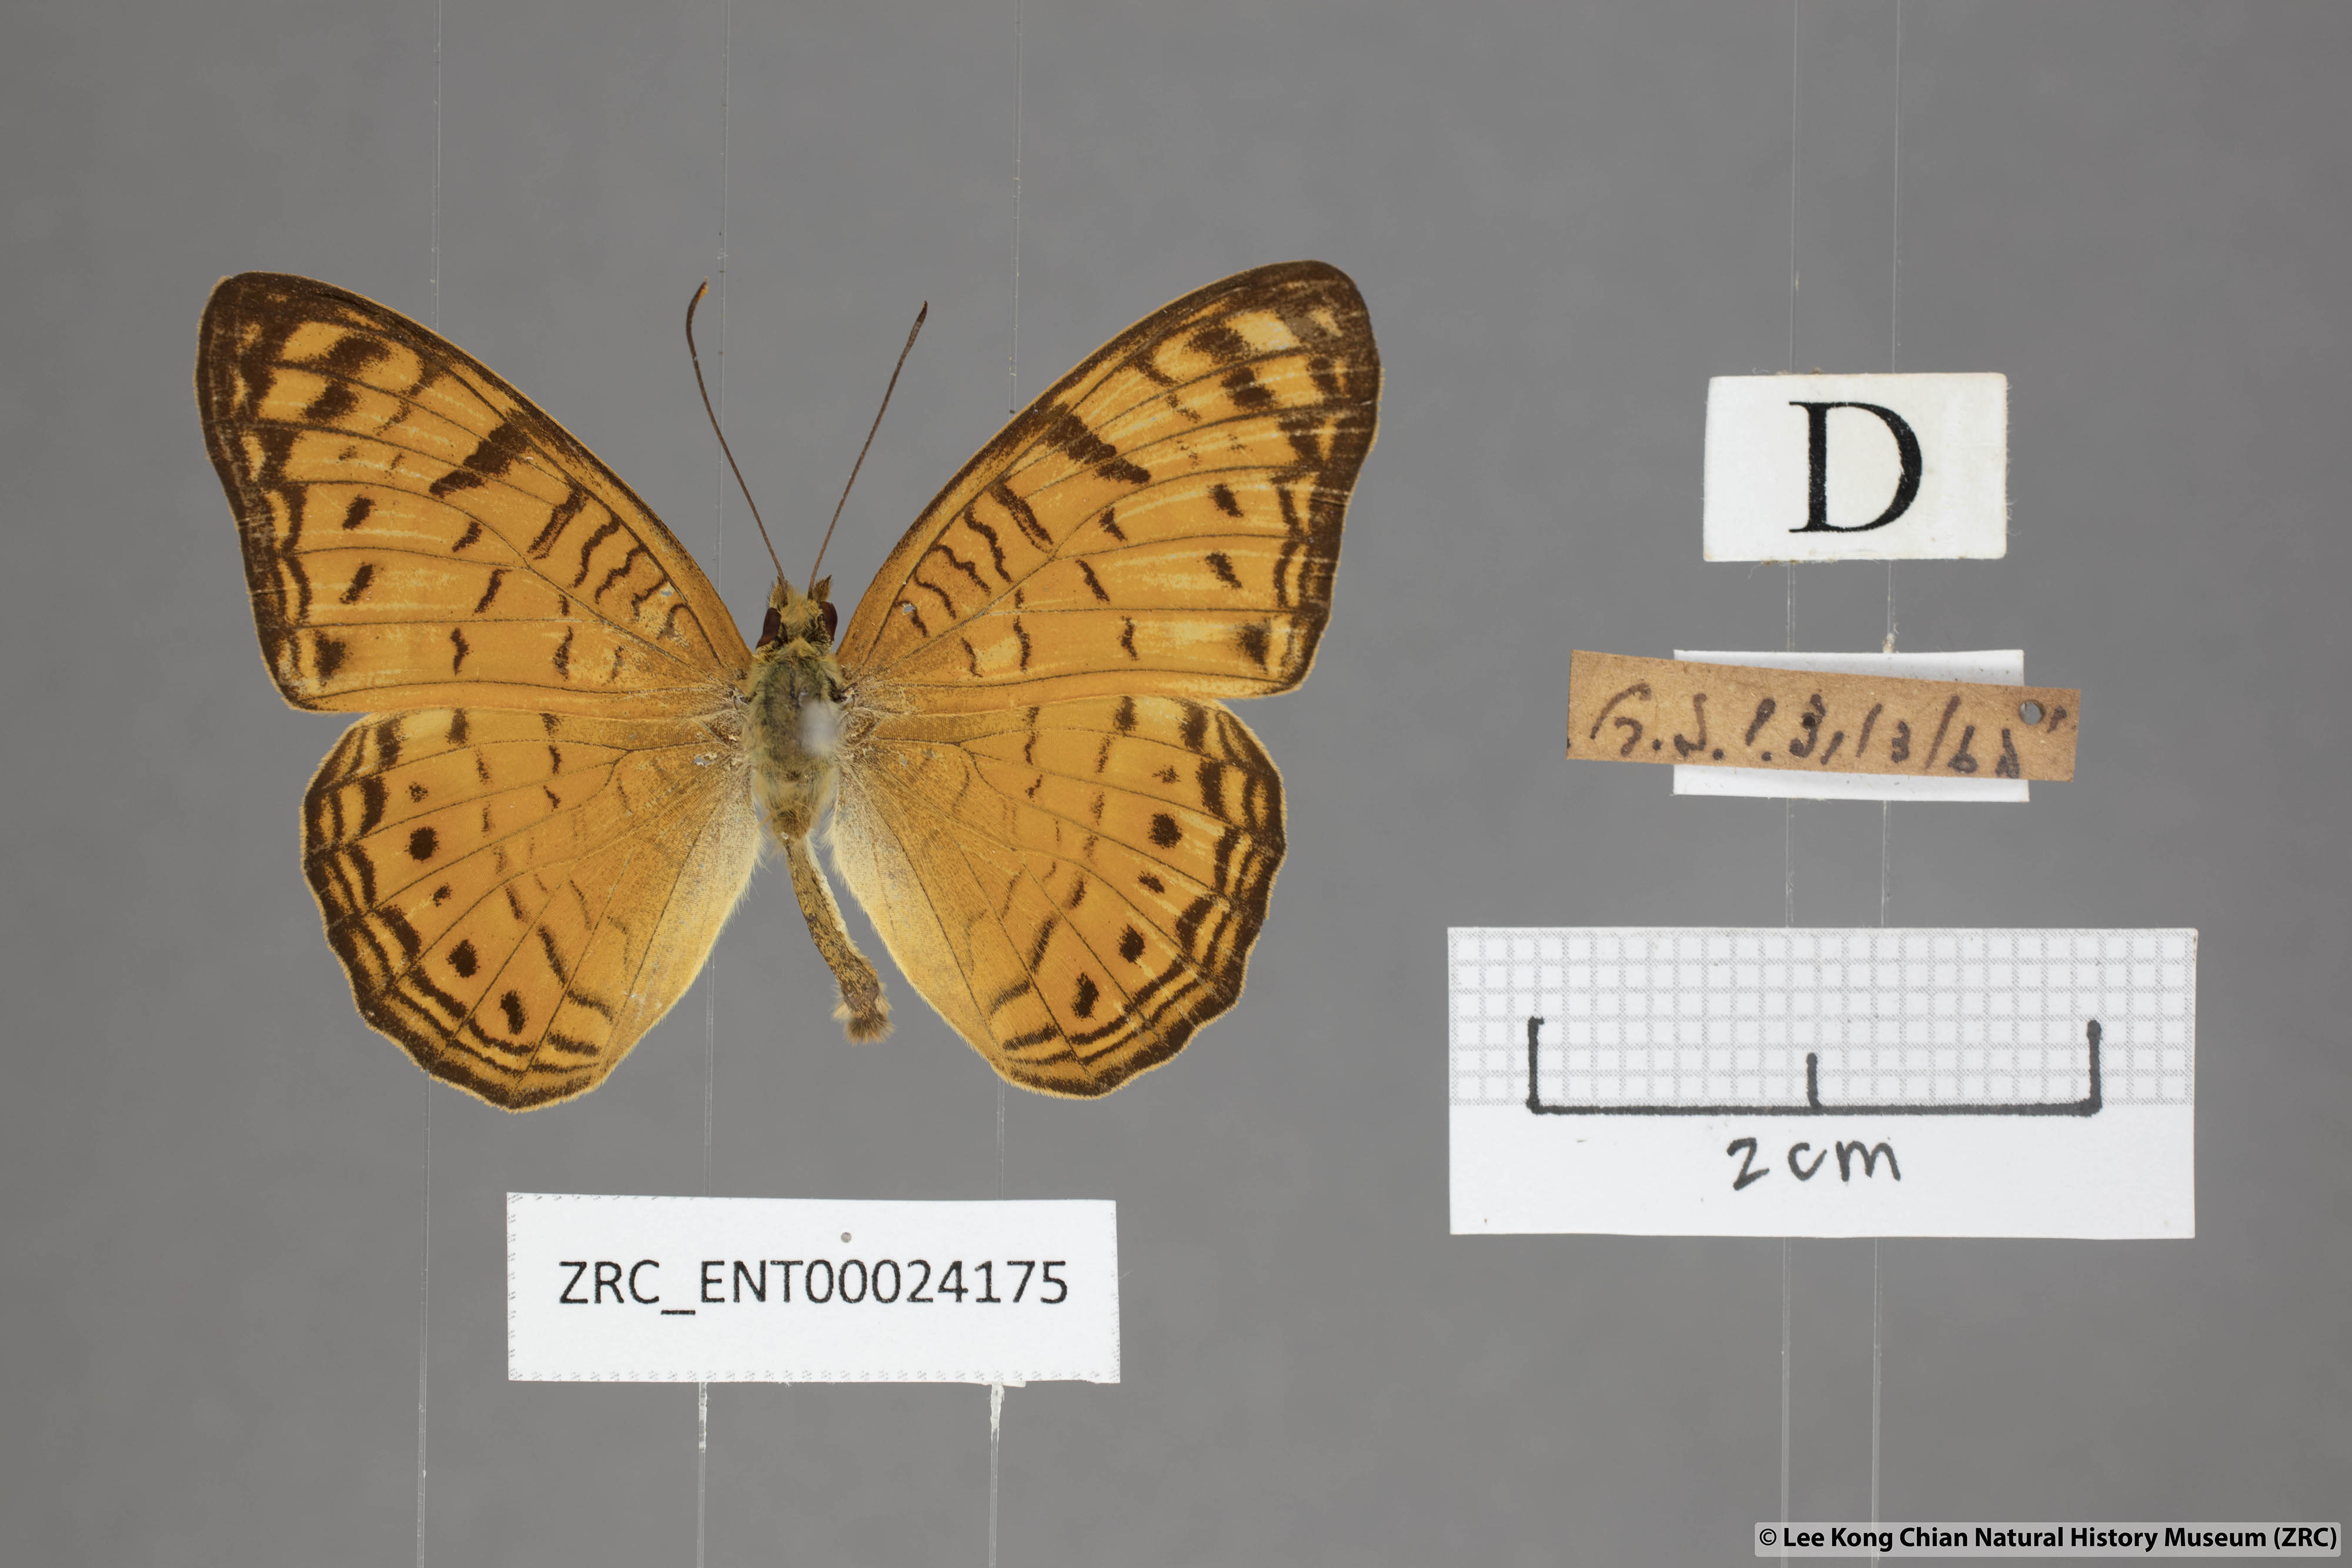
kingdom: Animalia
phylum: Arthropoda
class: Insecta
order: Lepidoptera
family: Nymphalidae
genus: Phalanta
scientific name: Phalanta alcippe
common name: Small leopard
